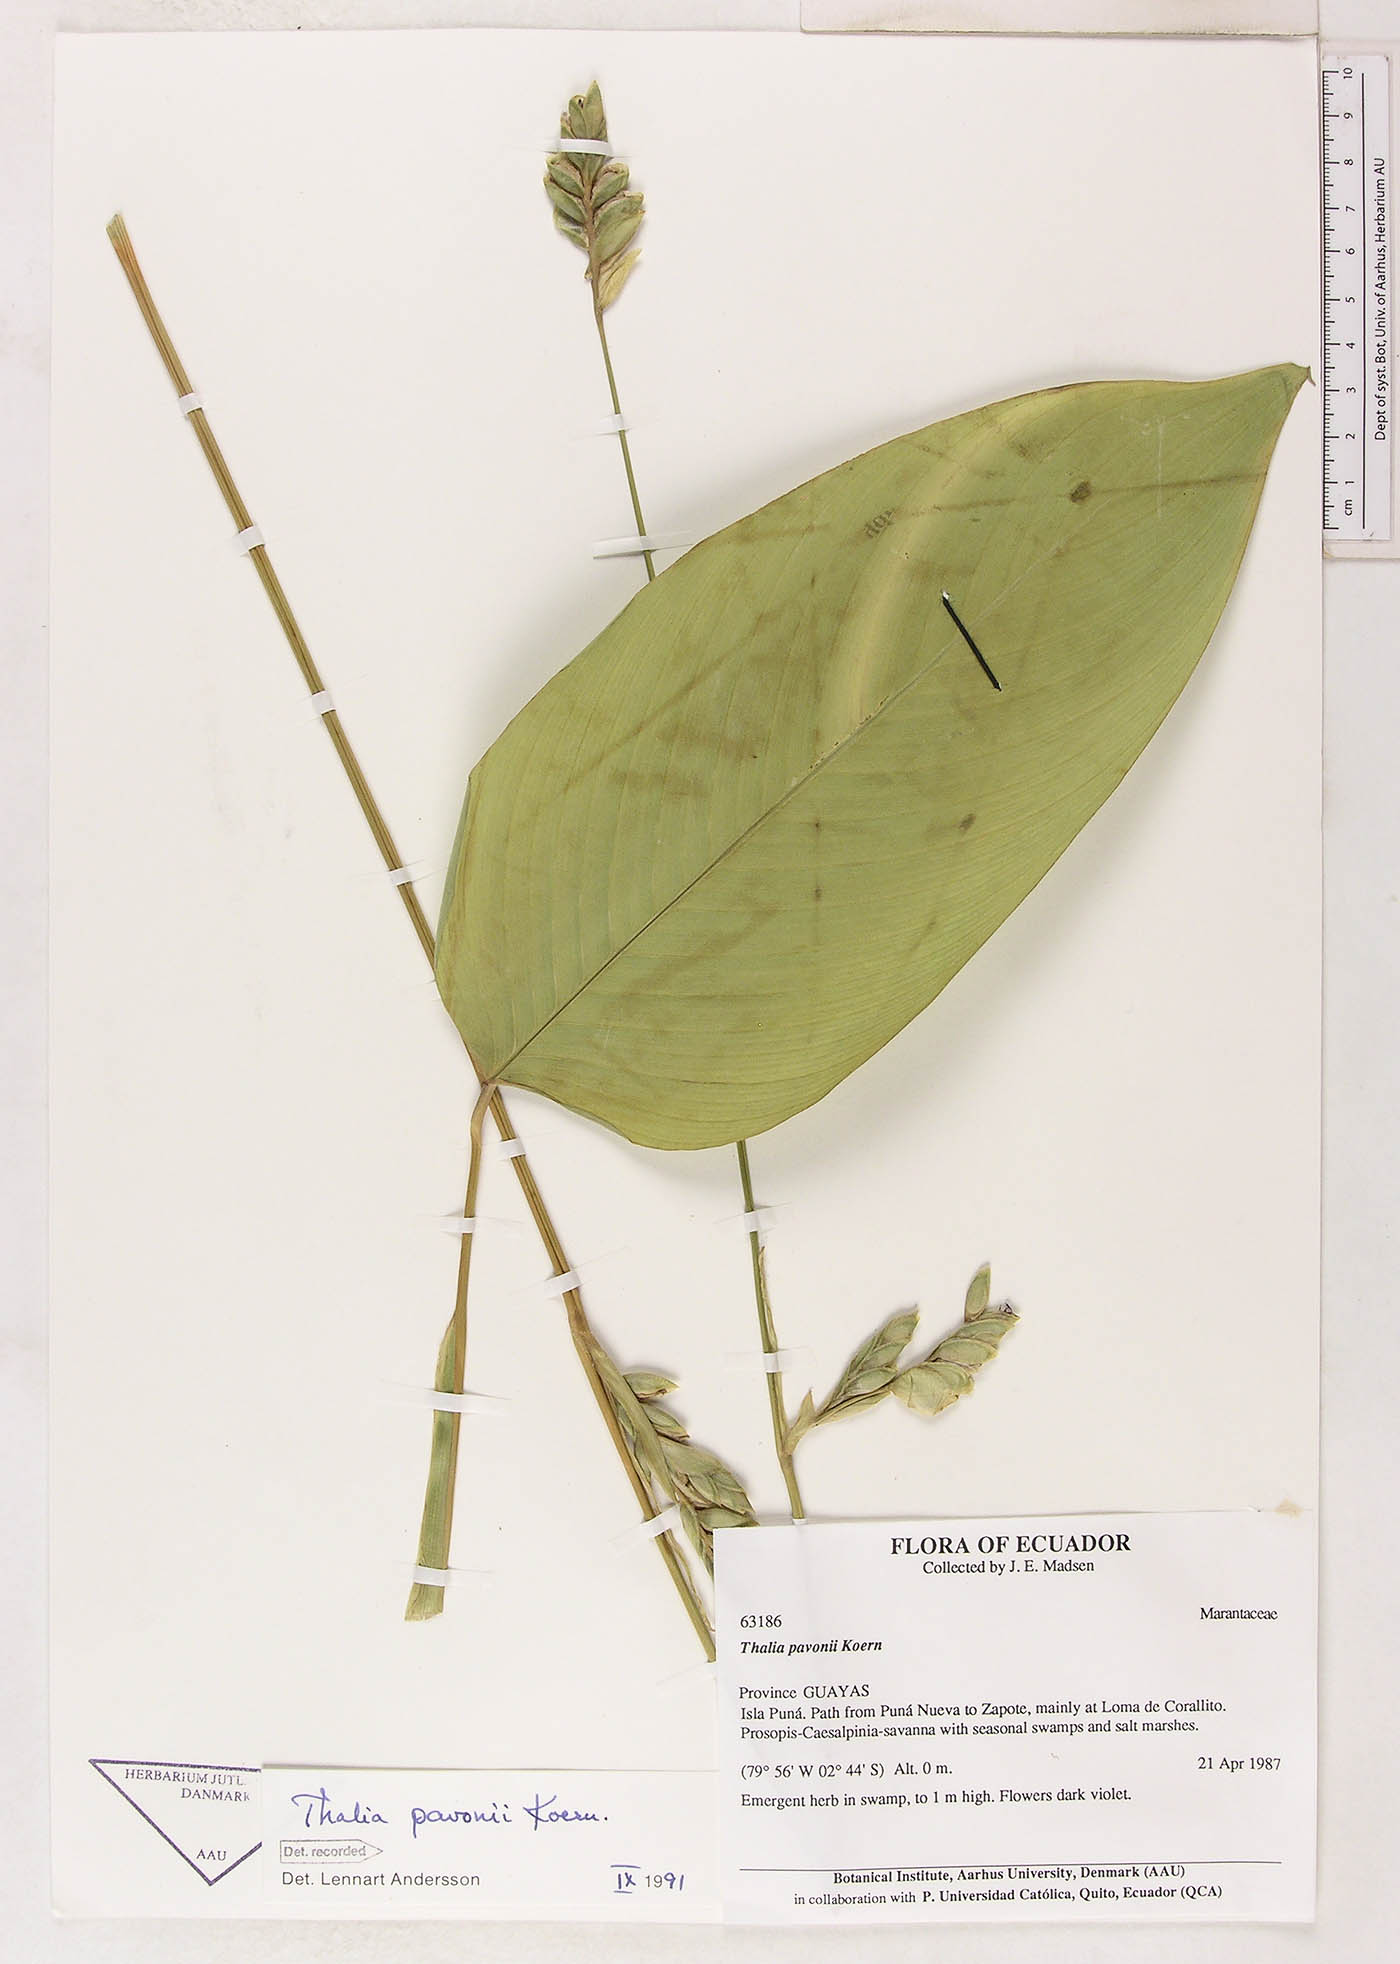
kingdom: Plantae
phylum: Tracheophyta
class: Liliopsida
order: Zingiberales
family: Marantaceae
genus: Thalia
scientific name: Thalia pavonii
